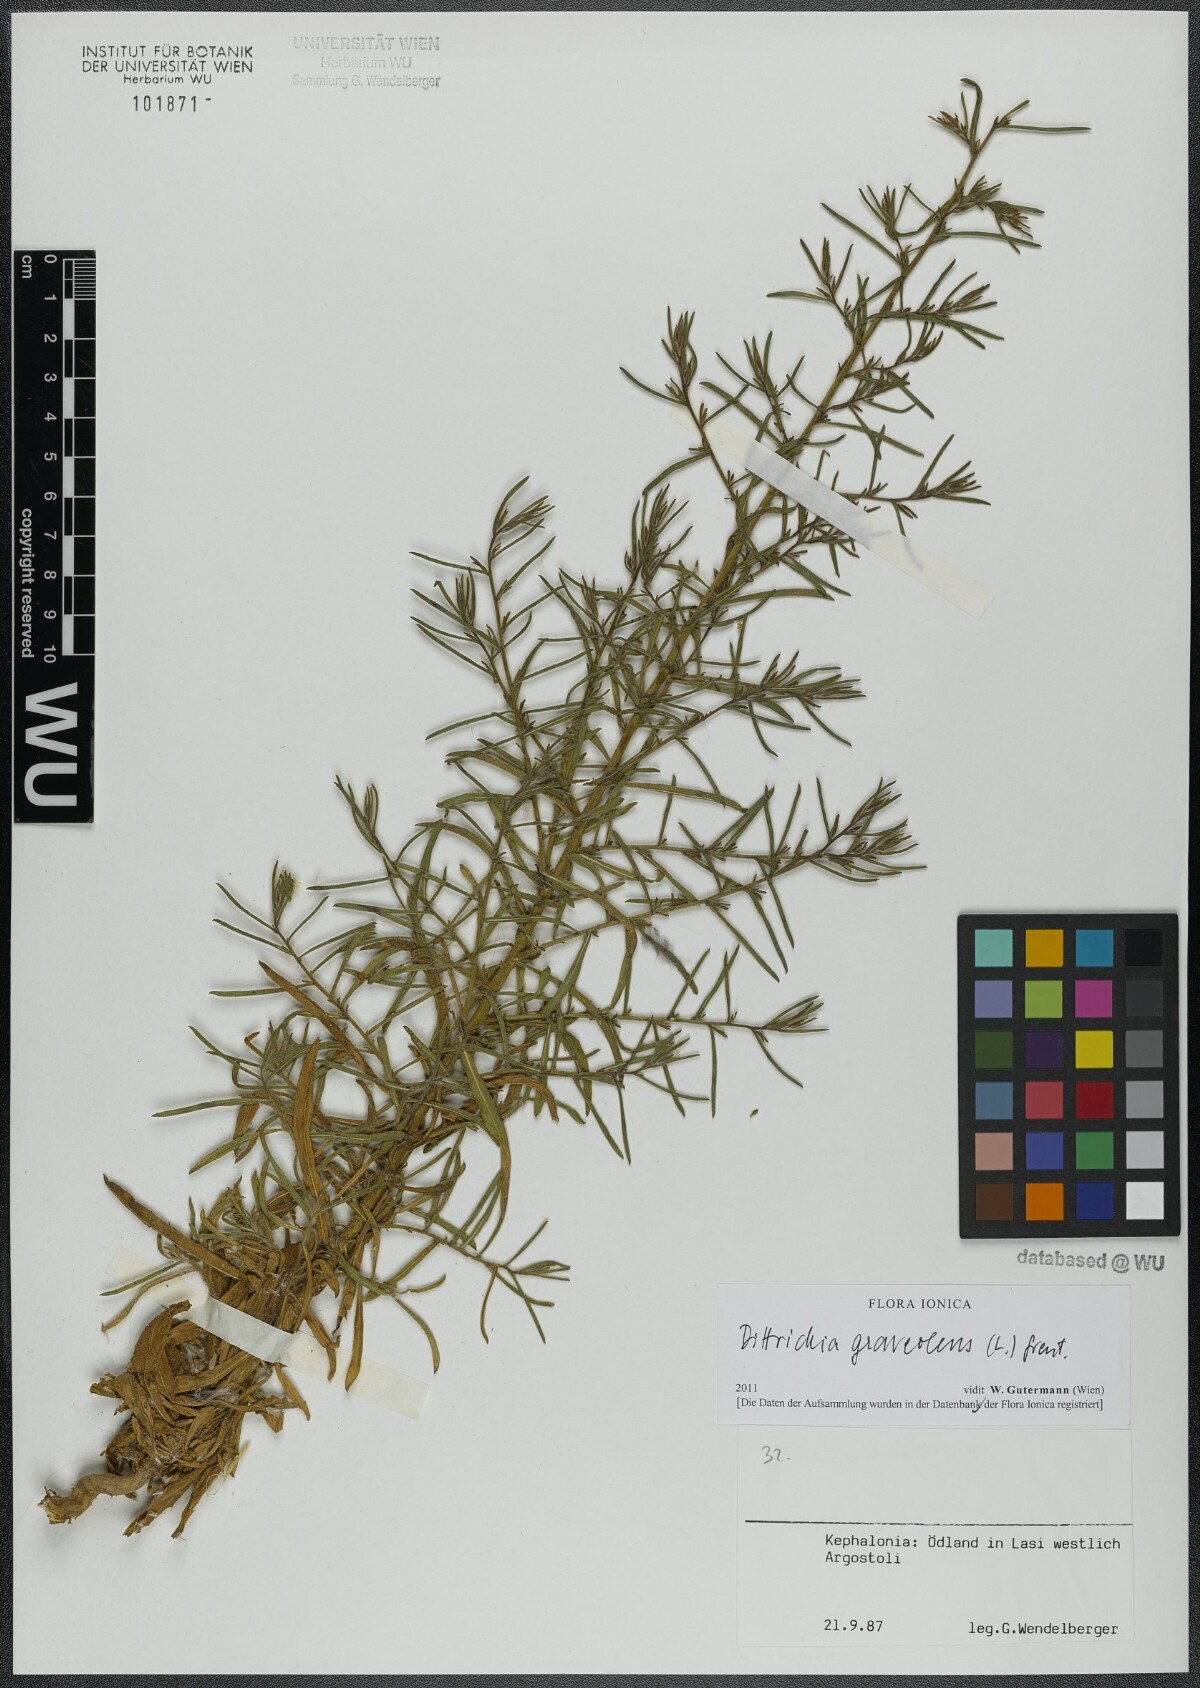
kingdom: Plantae
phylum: Tracheophyta
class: Magnoliopsida
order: Asterales
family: Asteraceae
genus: Dittrichia
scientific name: Dittrichia graveolens
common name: Stinking fleabane
